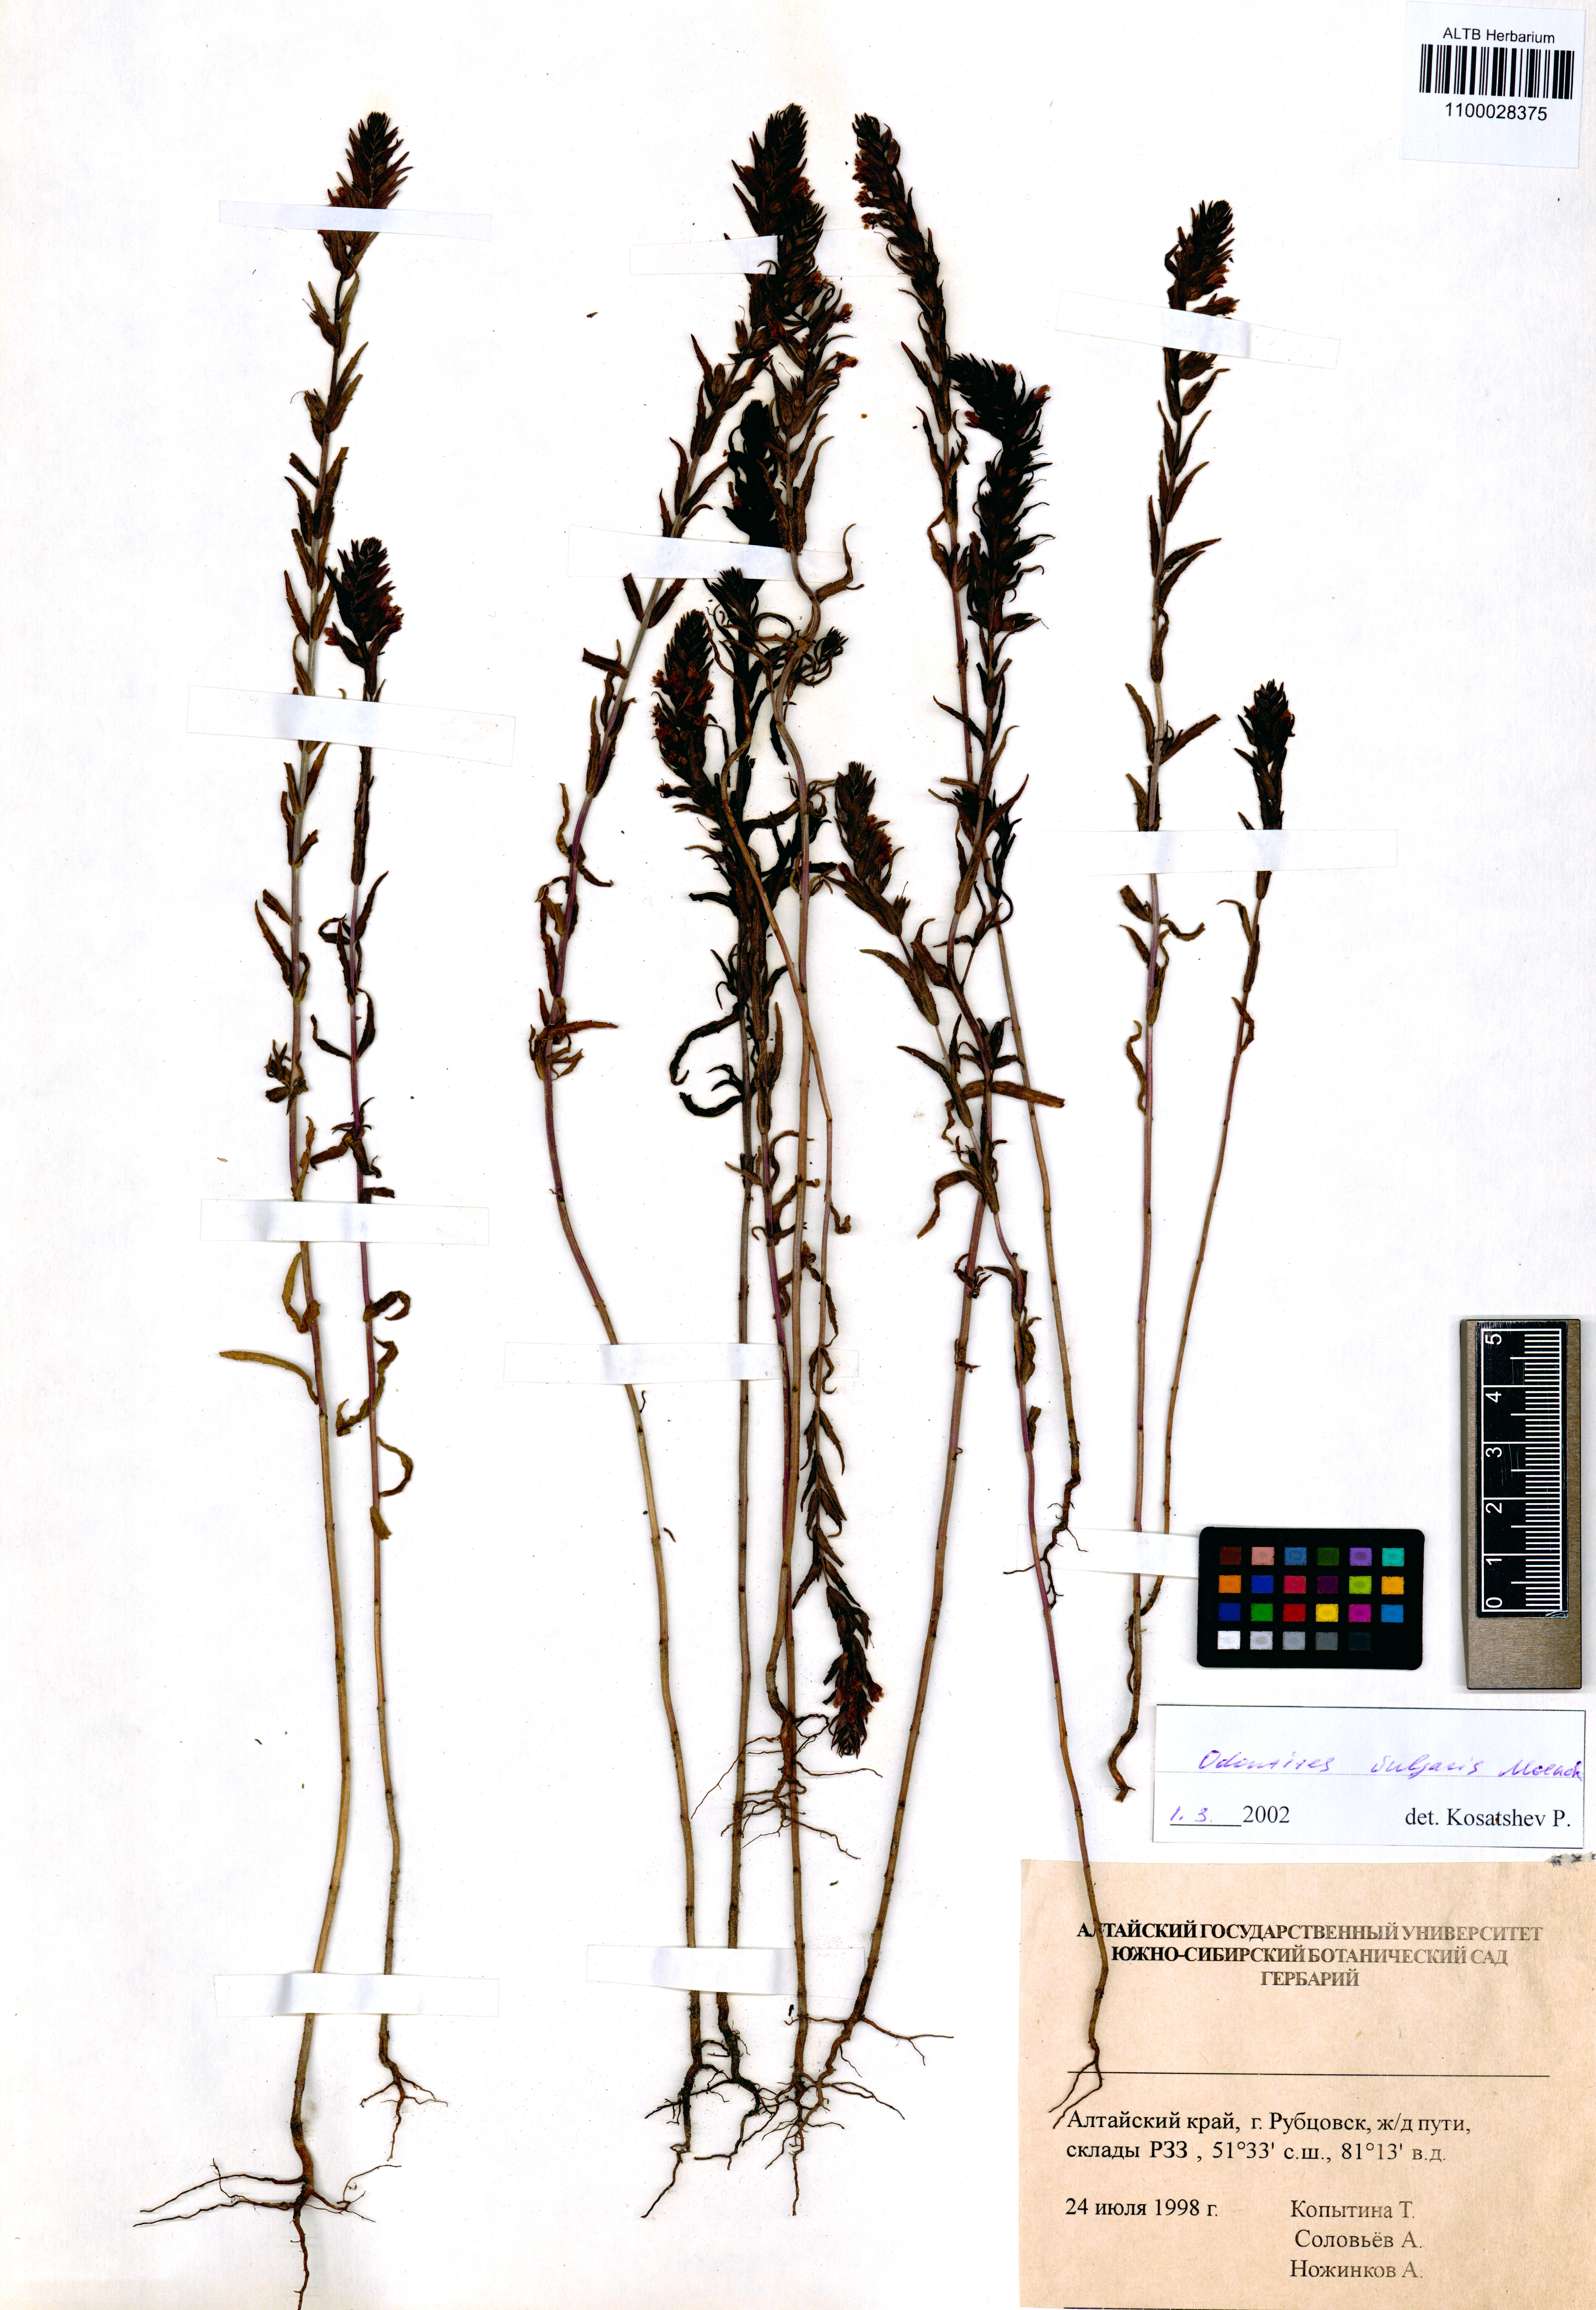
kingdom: Plantae
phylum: Tracheophyta
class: Magnoliopsida
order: Lamiales
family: Orobanchaceae
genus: Odontites
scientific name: Odontites vulgaris
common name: Broomrape
